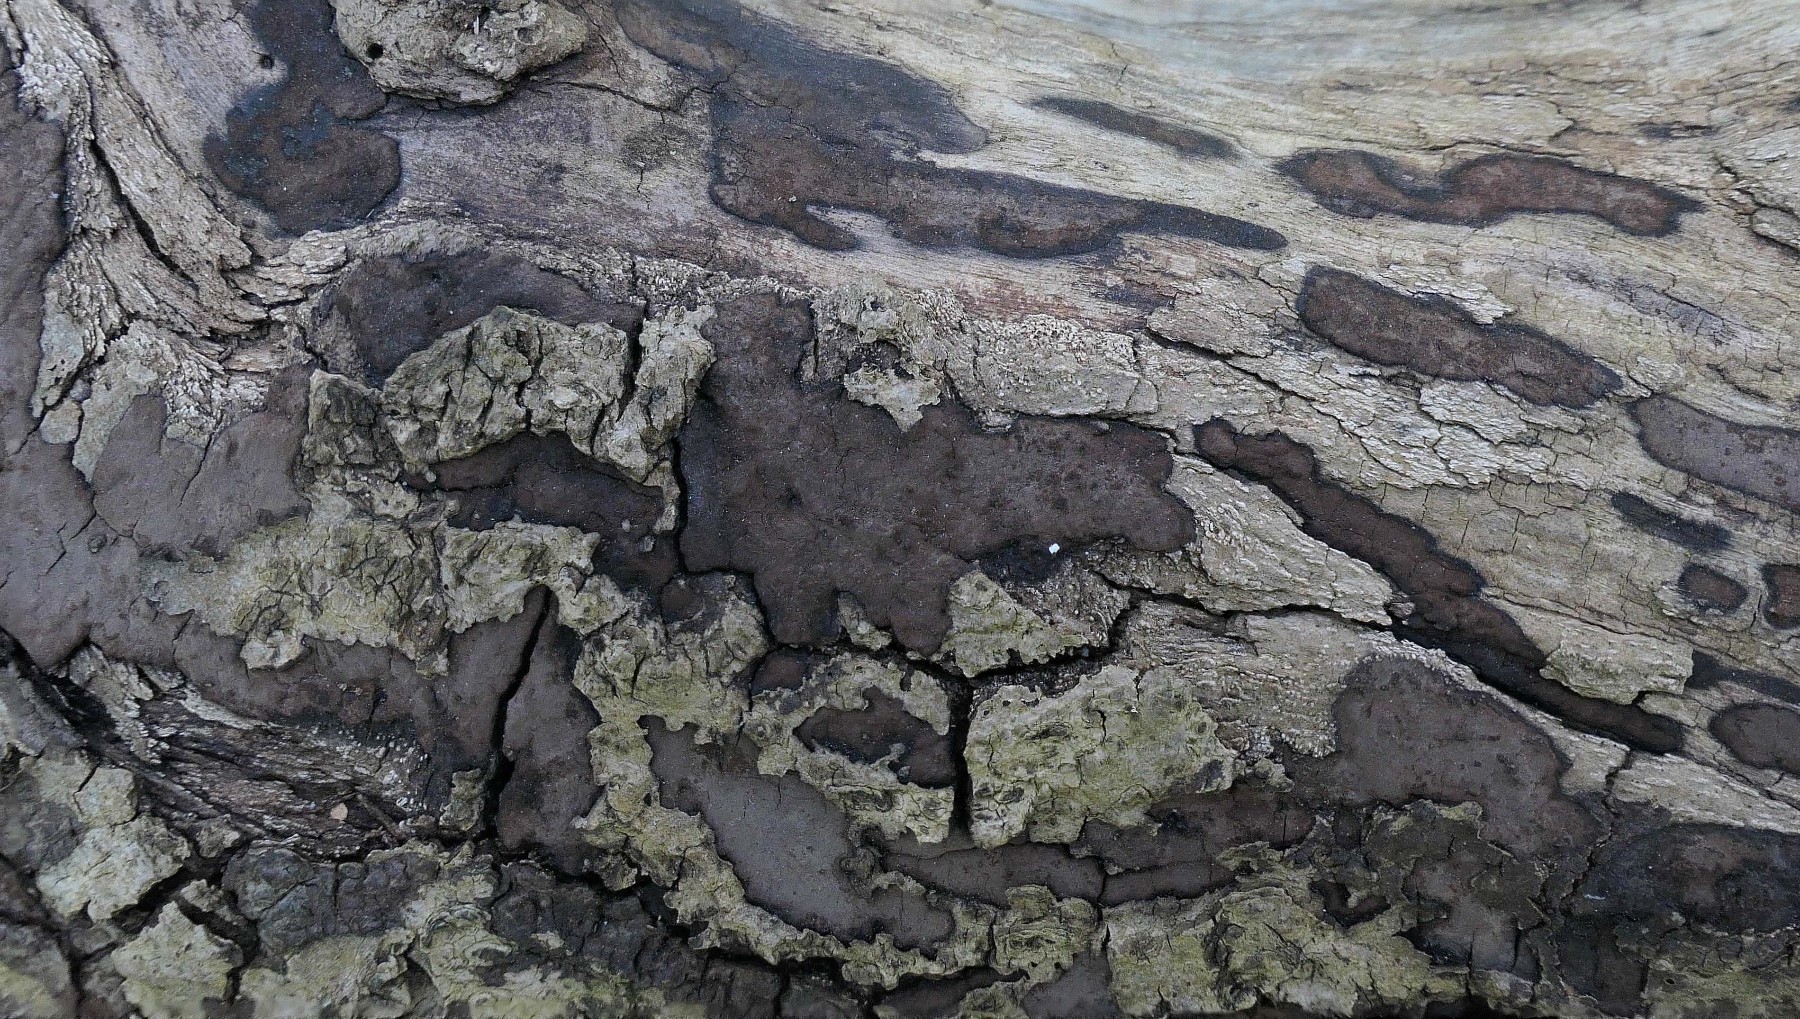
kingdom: Fungi
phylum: Ascomycota
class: Sordariomycetes
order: Xylariales
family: Hypoxylaceae
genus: Hypoxylon
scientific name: Hypoxylon petriniae
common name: nedsænket kulbær
